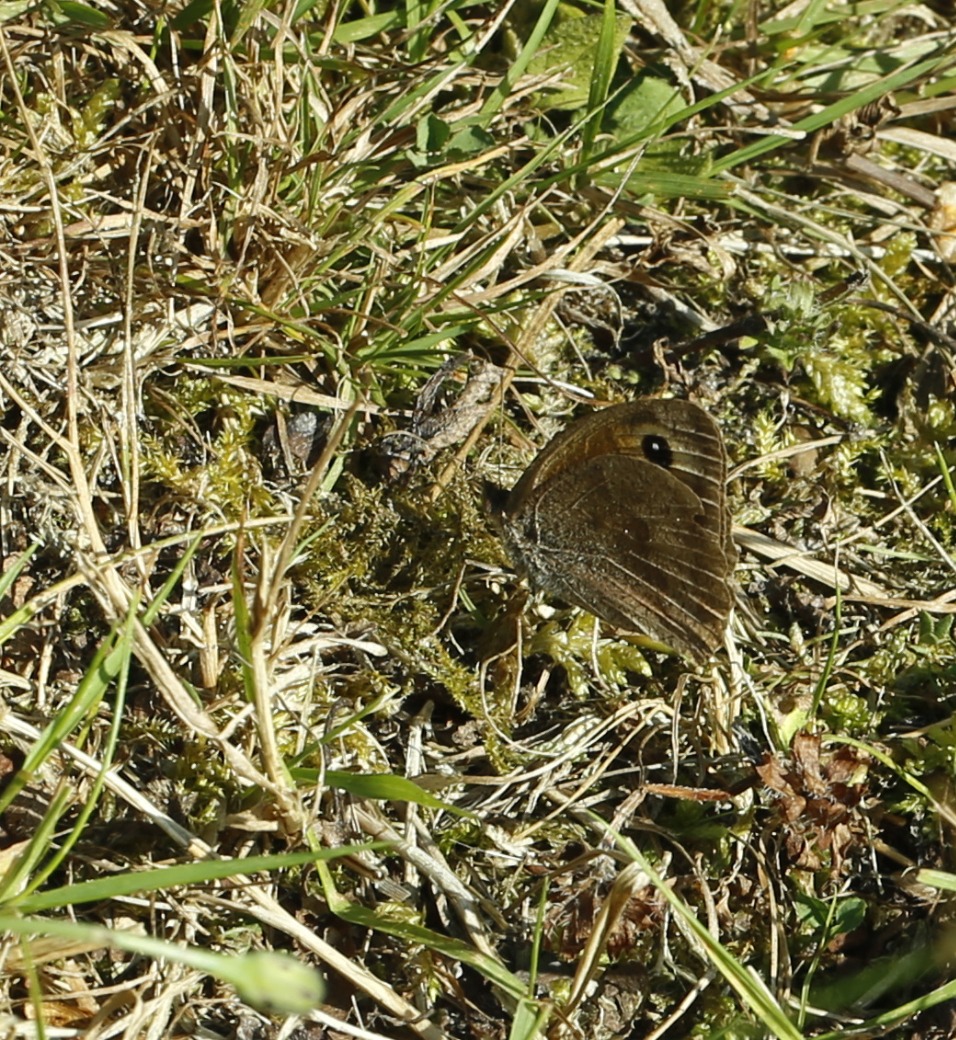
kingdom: Animalia
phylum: Arthropoda
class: Insecta
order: Lepidoptera
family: Nymphalidae
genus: Maniola
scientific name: Maniola jurtina
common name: Græsrandøje
